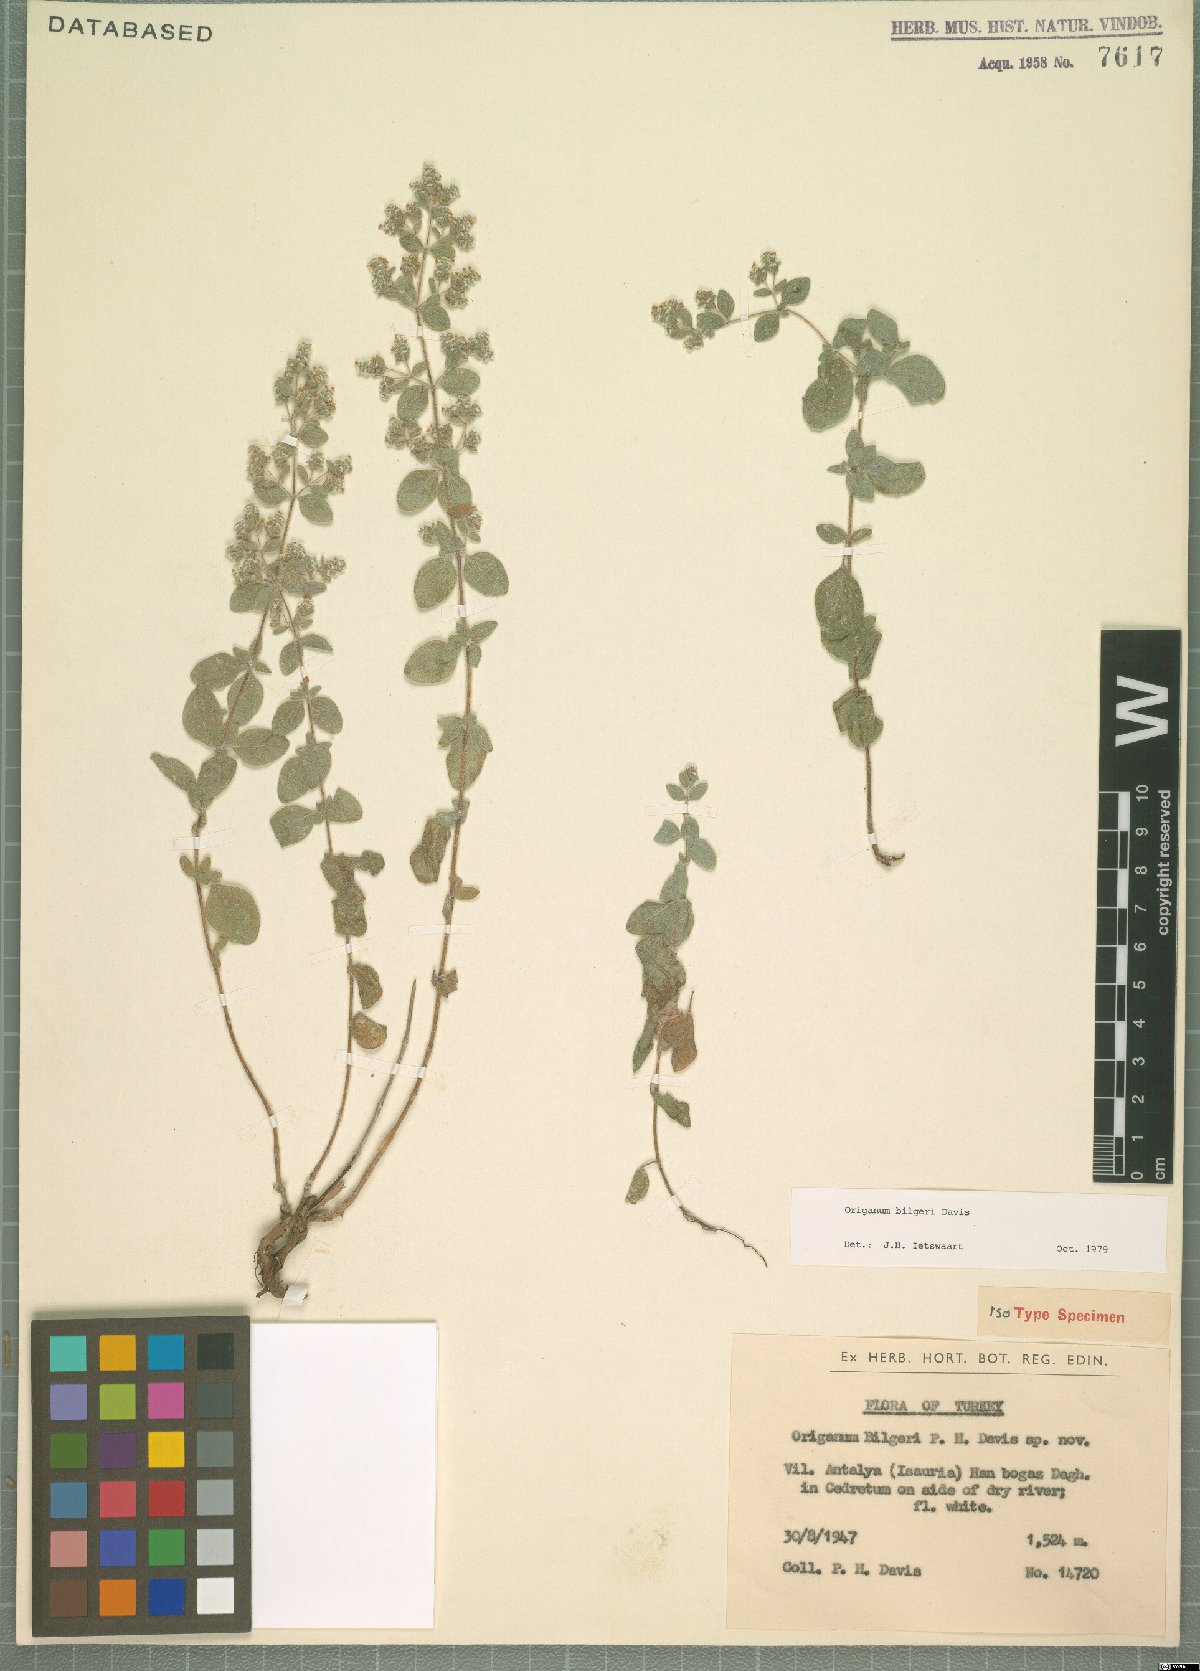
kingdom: Plantae
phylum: Tracheophyta
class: Magnoliopsida
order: Lamiales
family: Lamiaceae
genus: Origanum
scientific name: Origanum bilgeri
